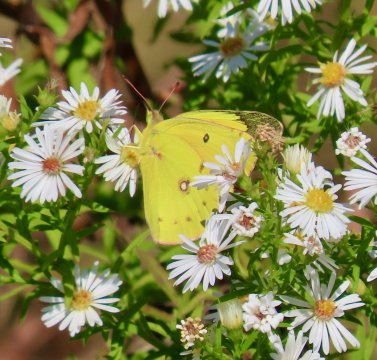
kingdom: Animalia
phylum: Arthropoda
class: Insecta
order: Lepidoptera
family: Pieridae
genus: Colias
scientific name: Colias eurytheme
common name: Orange Sulphur
